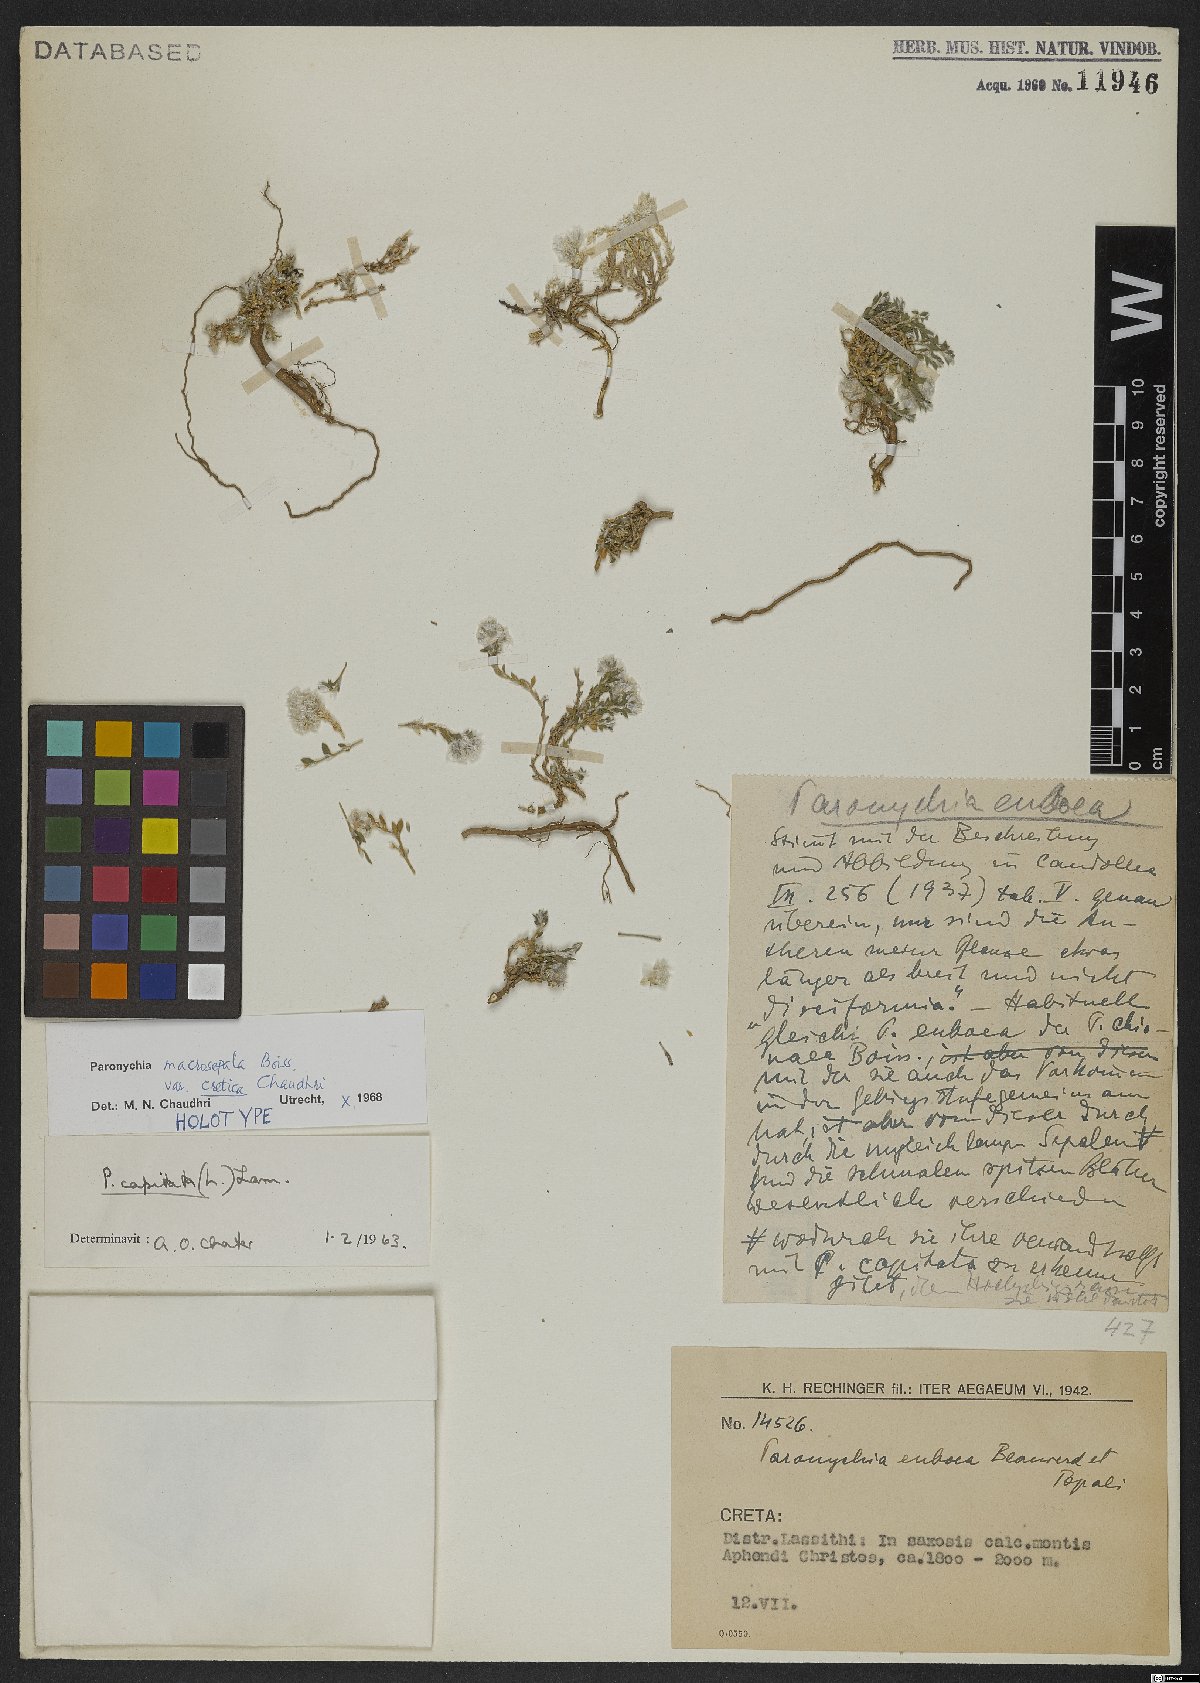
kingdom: Plantae
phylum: Tracheophyta
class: Magnoliopsida
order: Caryophyllales
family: Caryophyllaceae
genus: Paronychia
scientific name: Paronychia macrosepala
